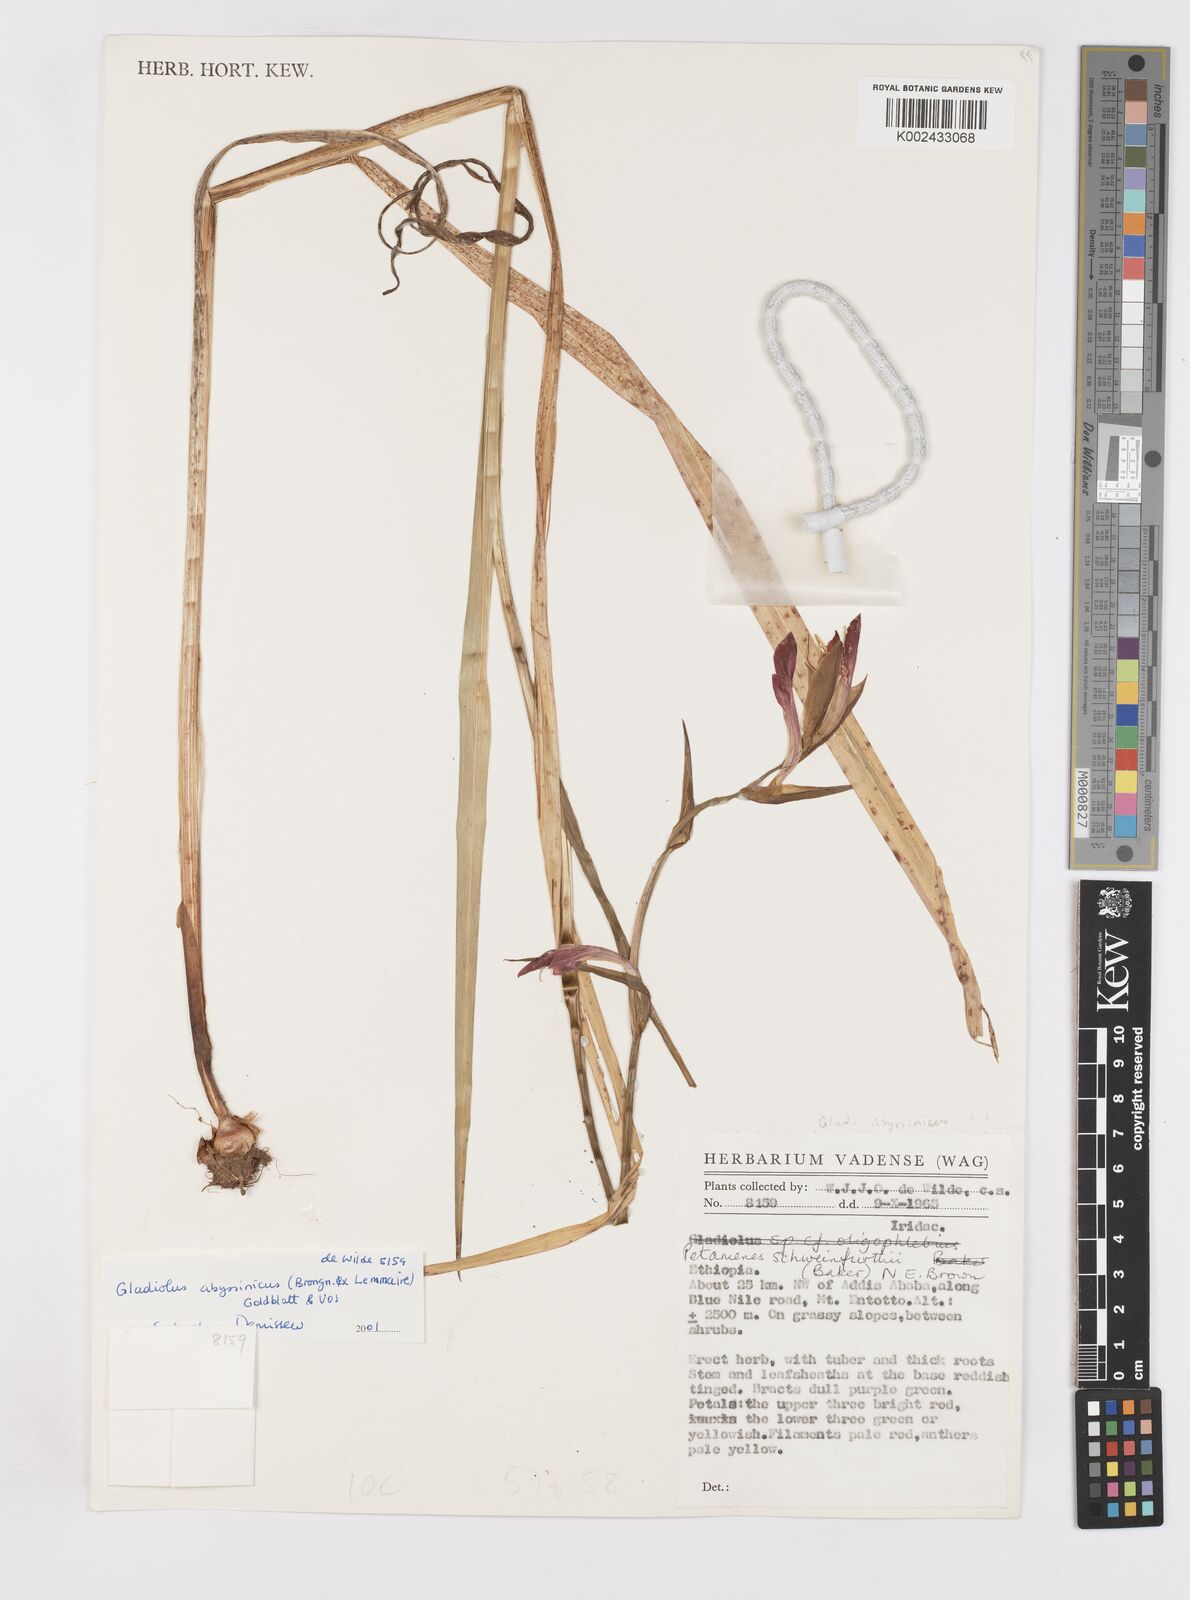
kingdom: Plantae
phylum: Tracheophyta
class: Liliopsida
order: Asparagales
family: Iridaceae
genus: Gladiolus
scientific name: Gladiolus abyssinicus
